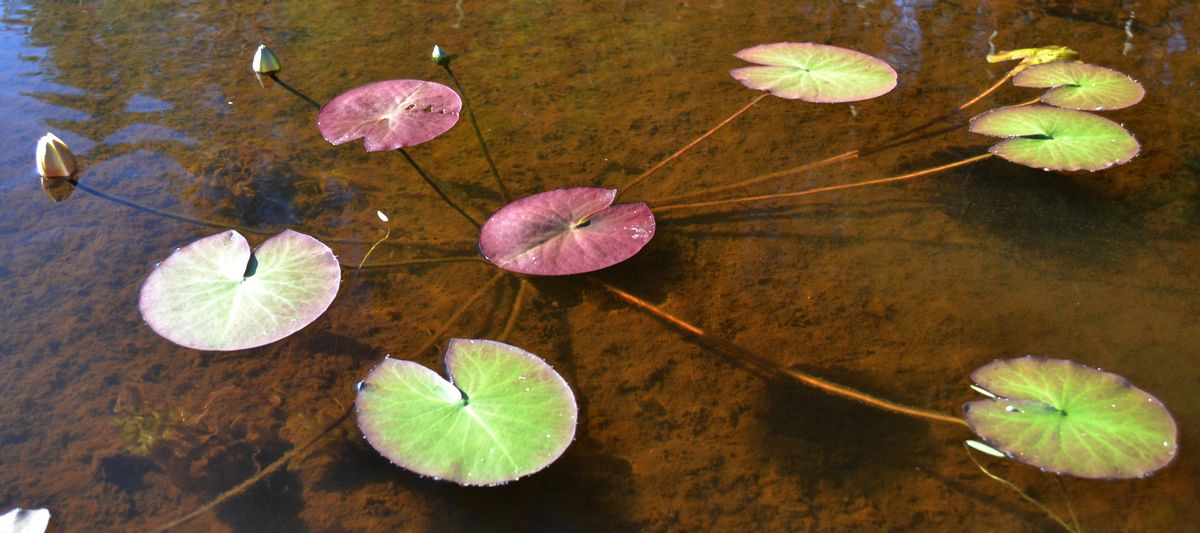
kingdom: Plantae
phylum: Tracheophyta
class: Magnoliopsida
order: Nymphaeales
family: Nymphaeaceae
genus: Nymphaea
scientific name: Nymphaea candida
